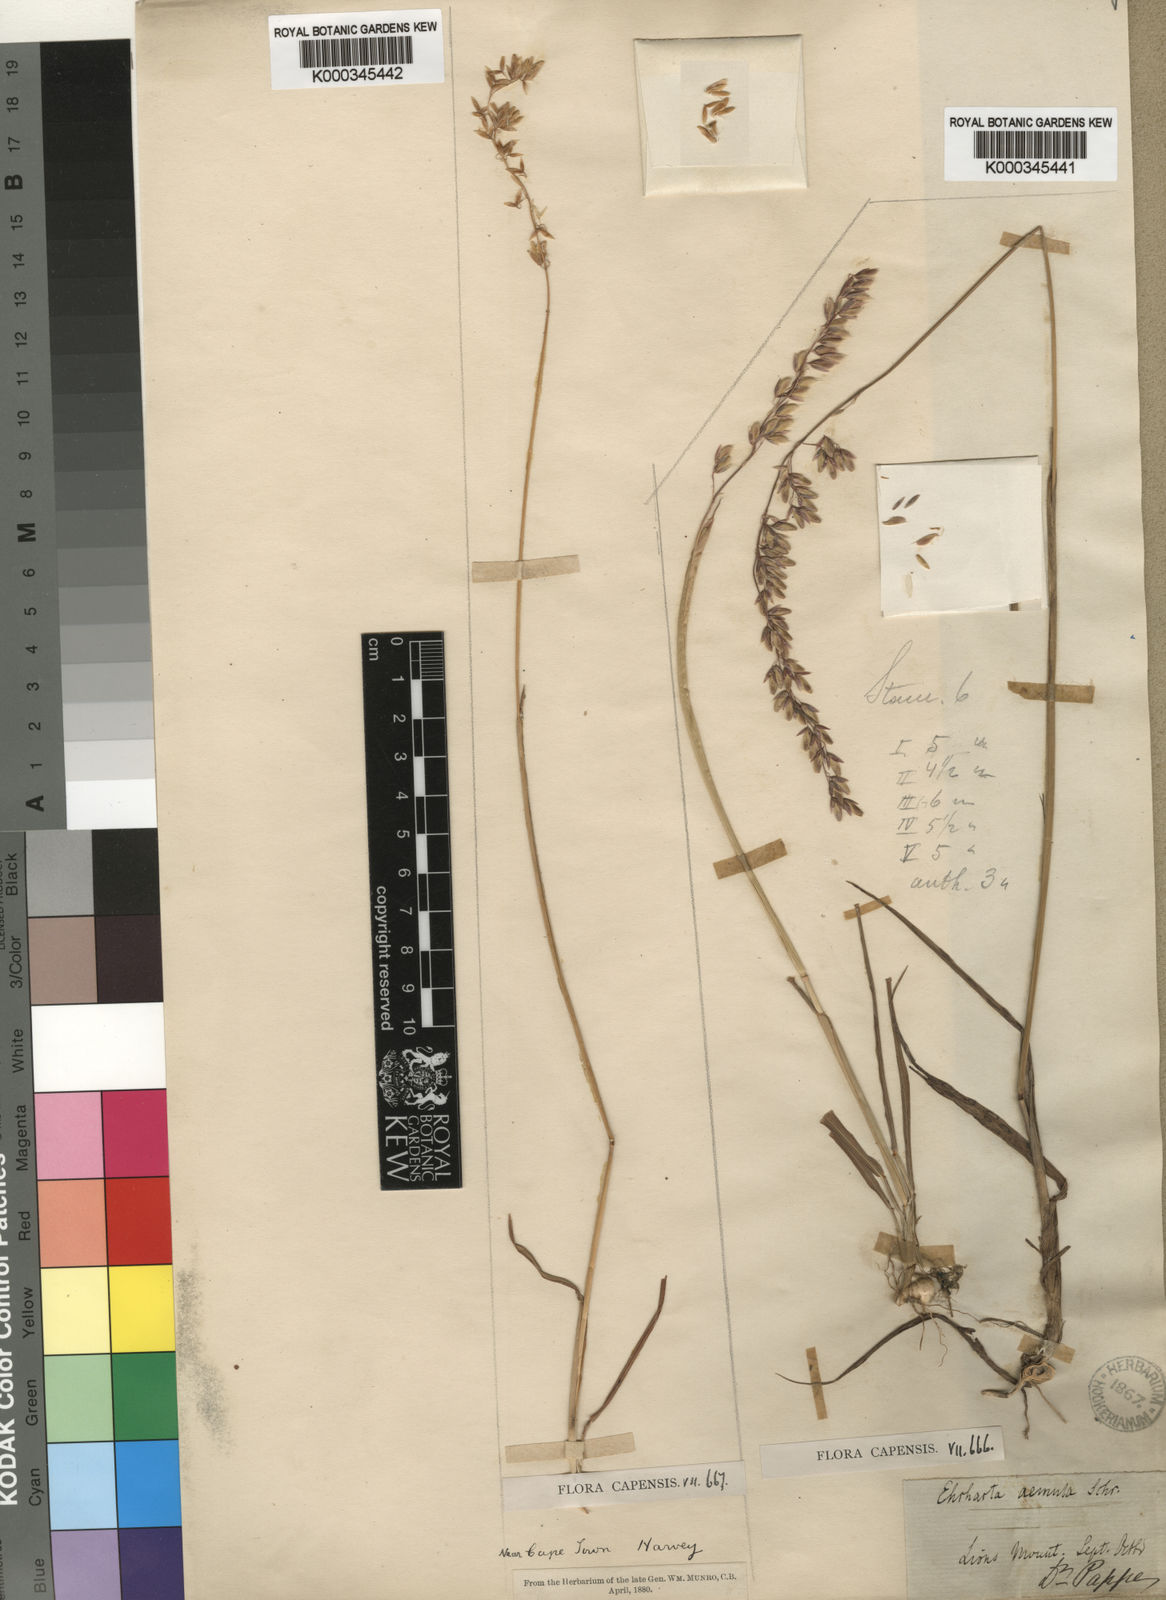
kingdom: Plantae
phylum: Tracheophyta
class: Liliopsida
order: Poales
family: Poaceae
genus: Ehrharta
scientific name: Ehrharta bulbosa
